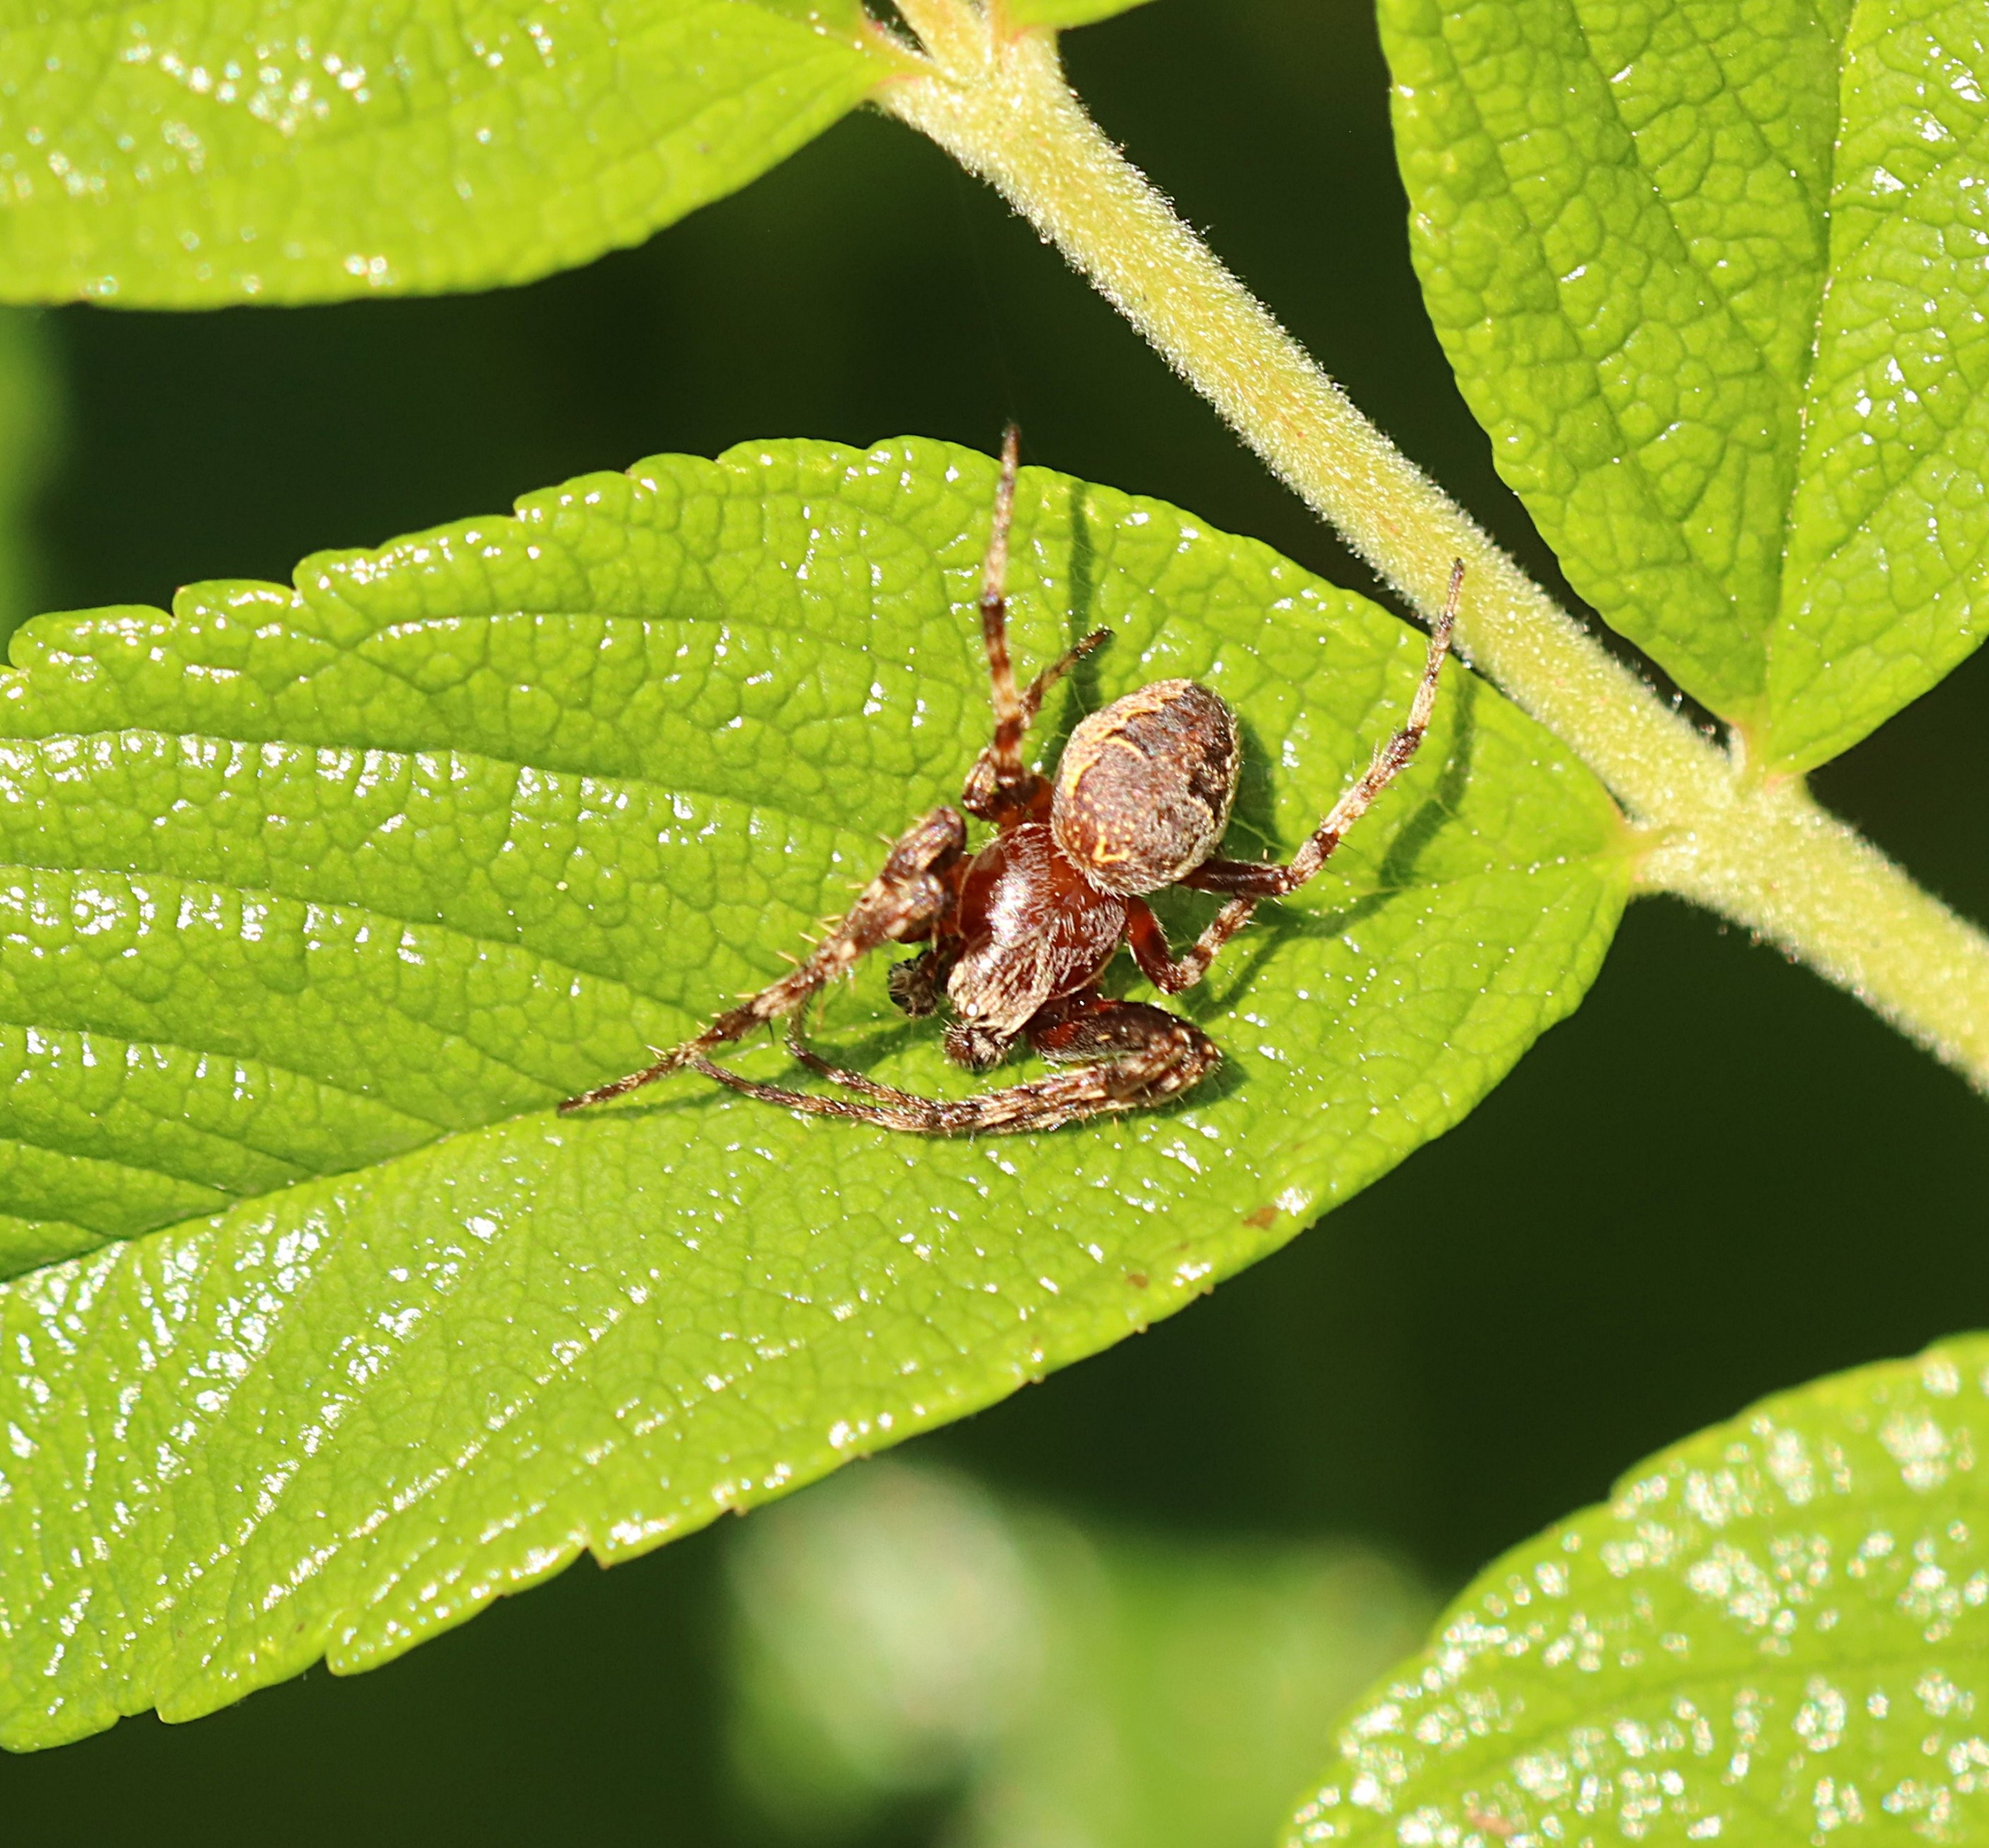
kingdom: Animalia
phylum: Arthropoda
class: Arachnida
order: Araneae
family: Araneidae
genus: Larinioides
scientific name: Larinioides patagiatus
